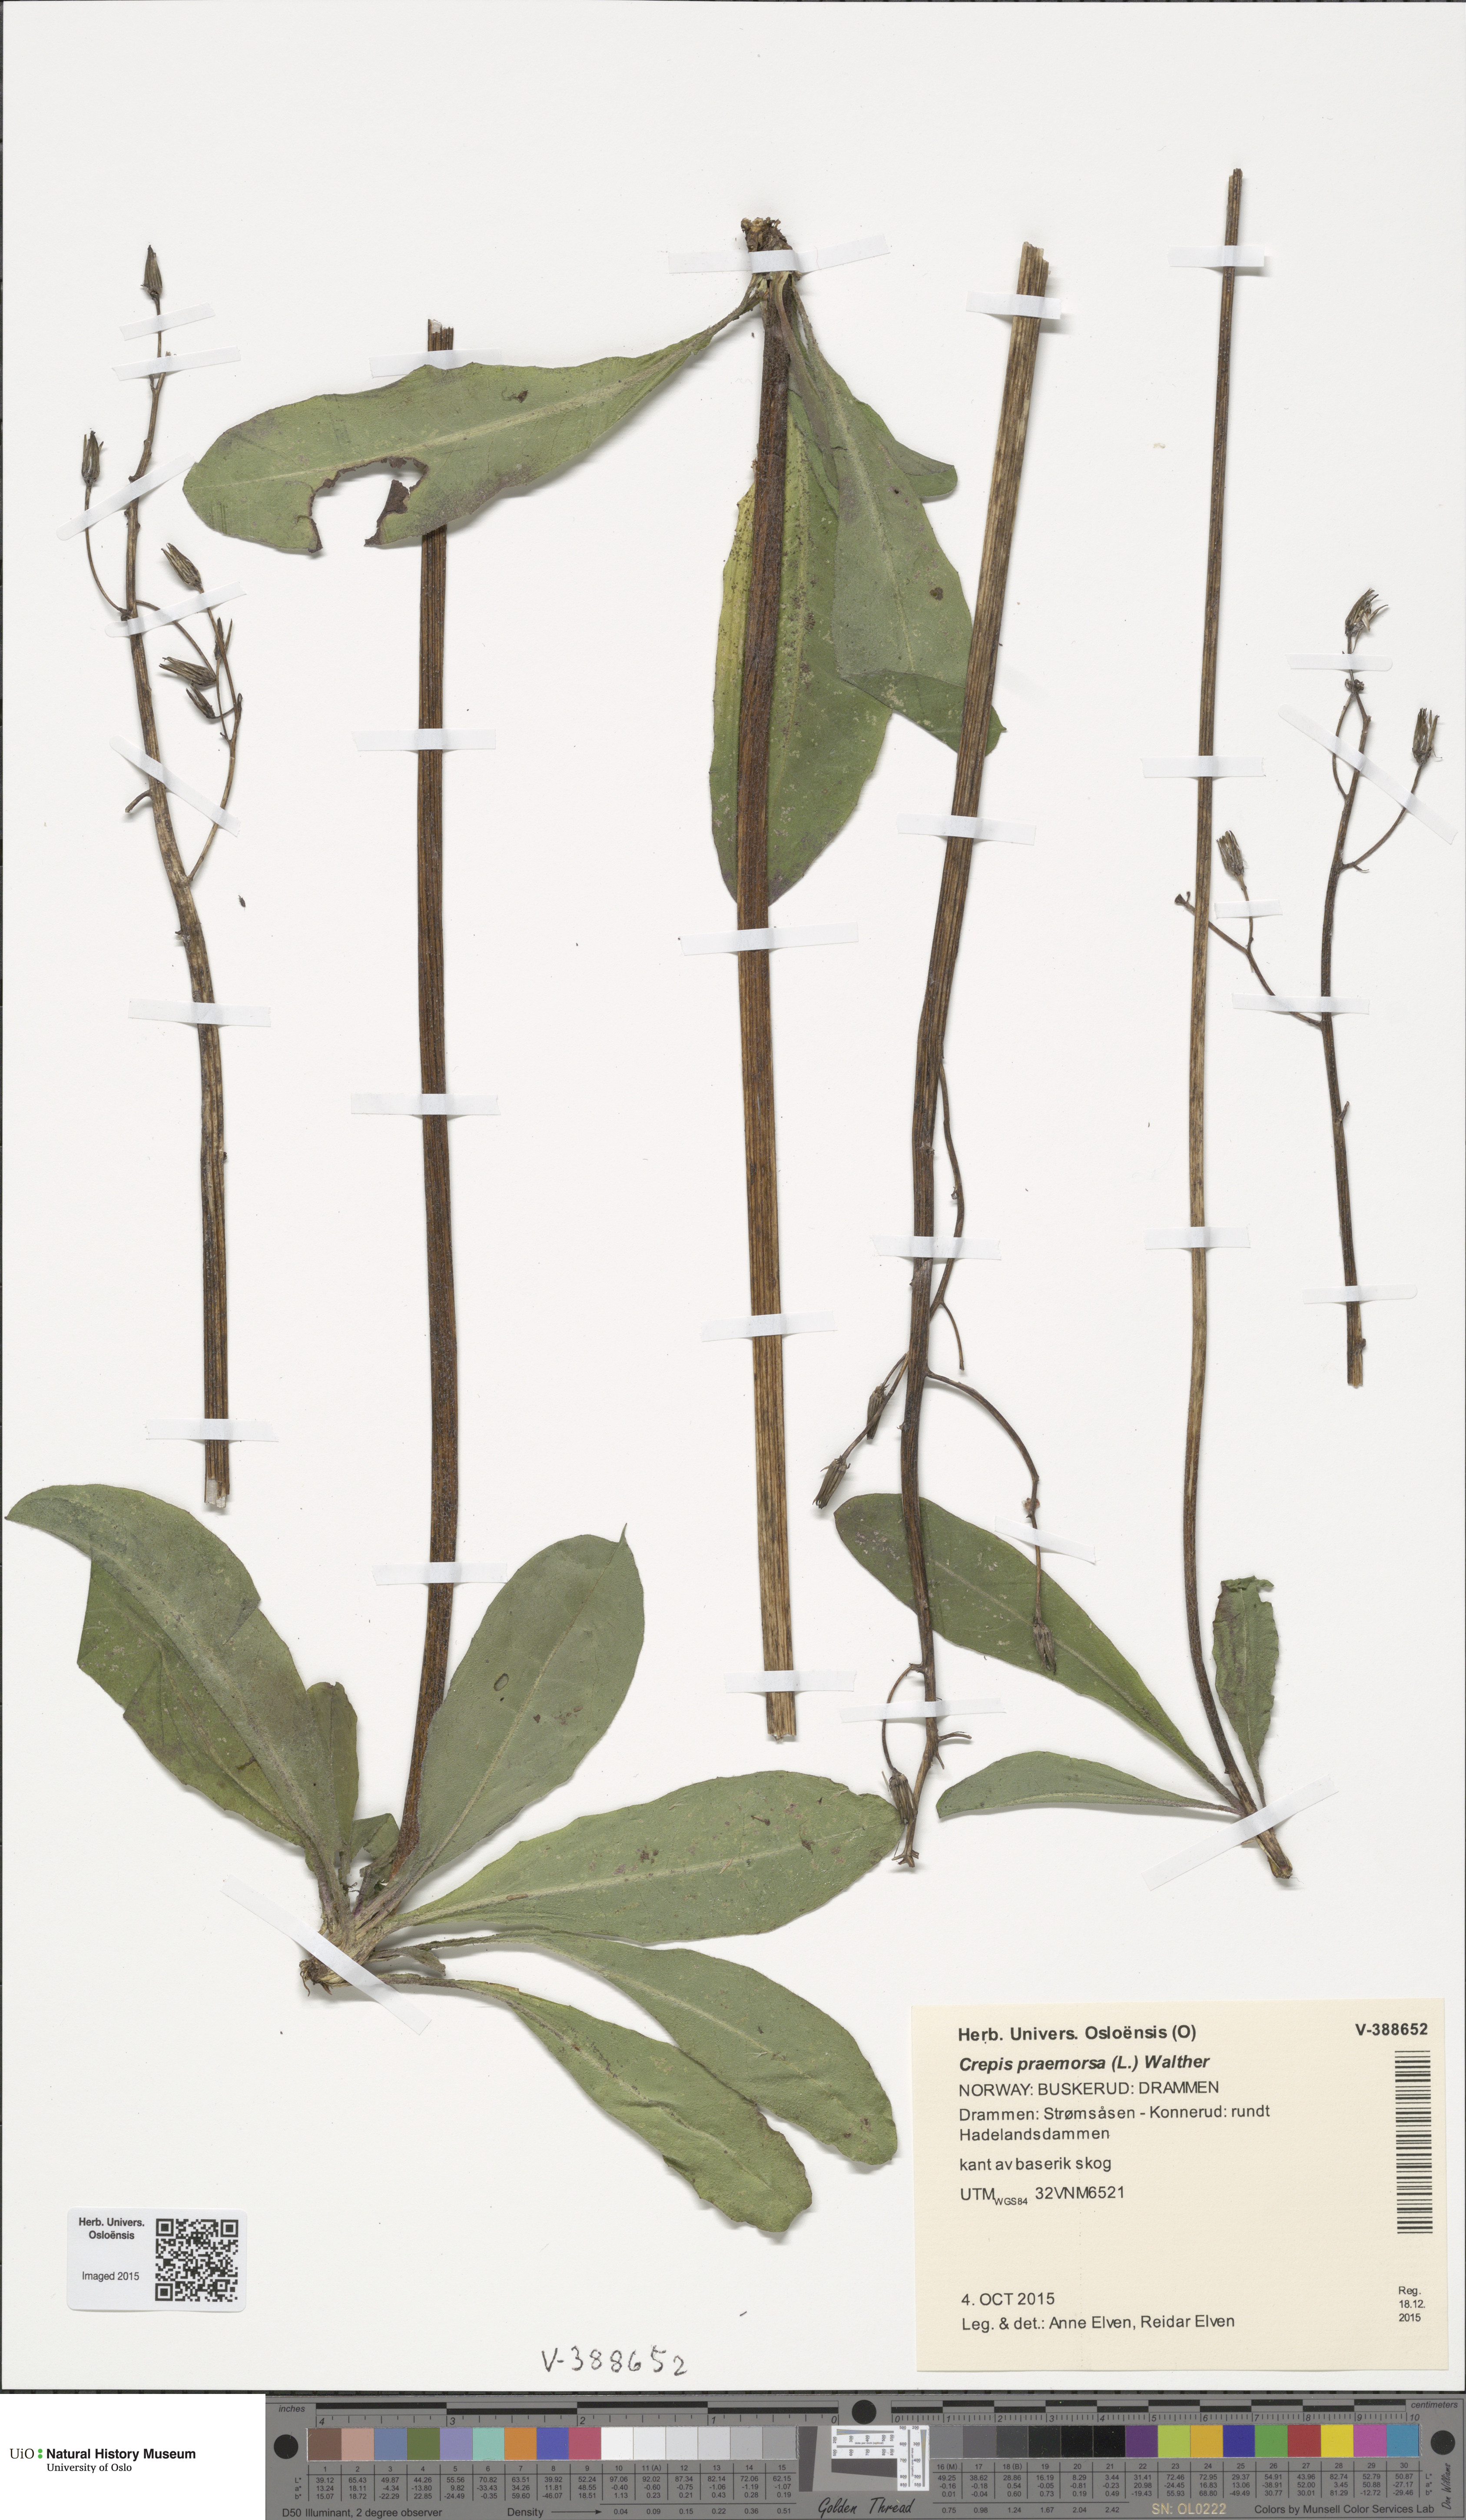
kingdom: Plantae
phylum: Tracheophyta
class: Magnoliopsida
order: Asterales
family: Asteraceae
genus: Crepis
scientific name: Crepis praemorsa
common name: Leafless hawk's-beard
